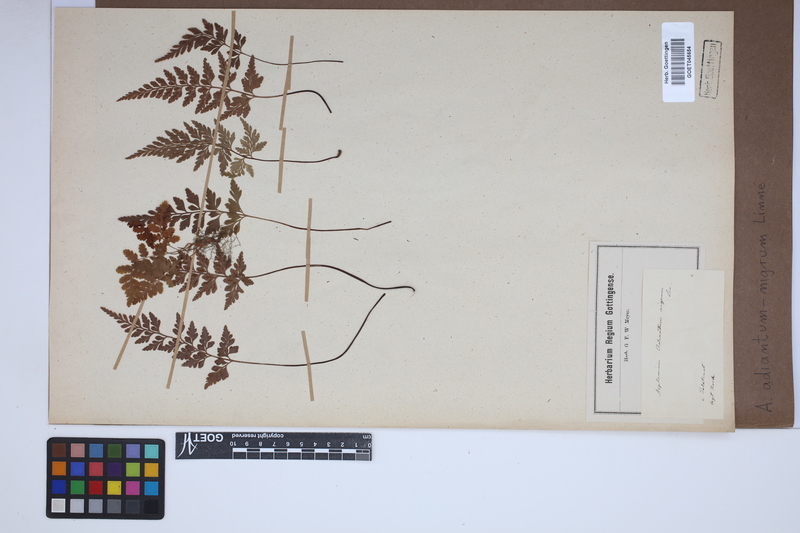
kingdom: Plantae
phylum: Tracheophyta
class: Polypodiopsida
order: Polypodiales
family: Aspleniaceae
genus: Asplenium
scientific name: Asplenium adiantum-nigrum
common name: Black spleenwort
